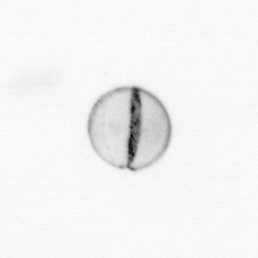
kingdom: Chromista
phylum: Ochrophyta
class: Bacillariophyceae
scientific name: Bacillariophyceae
